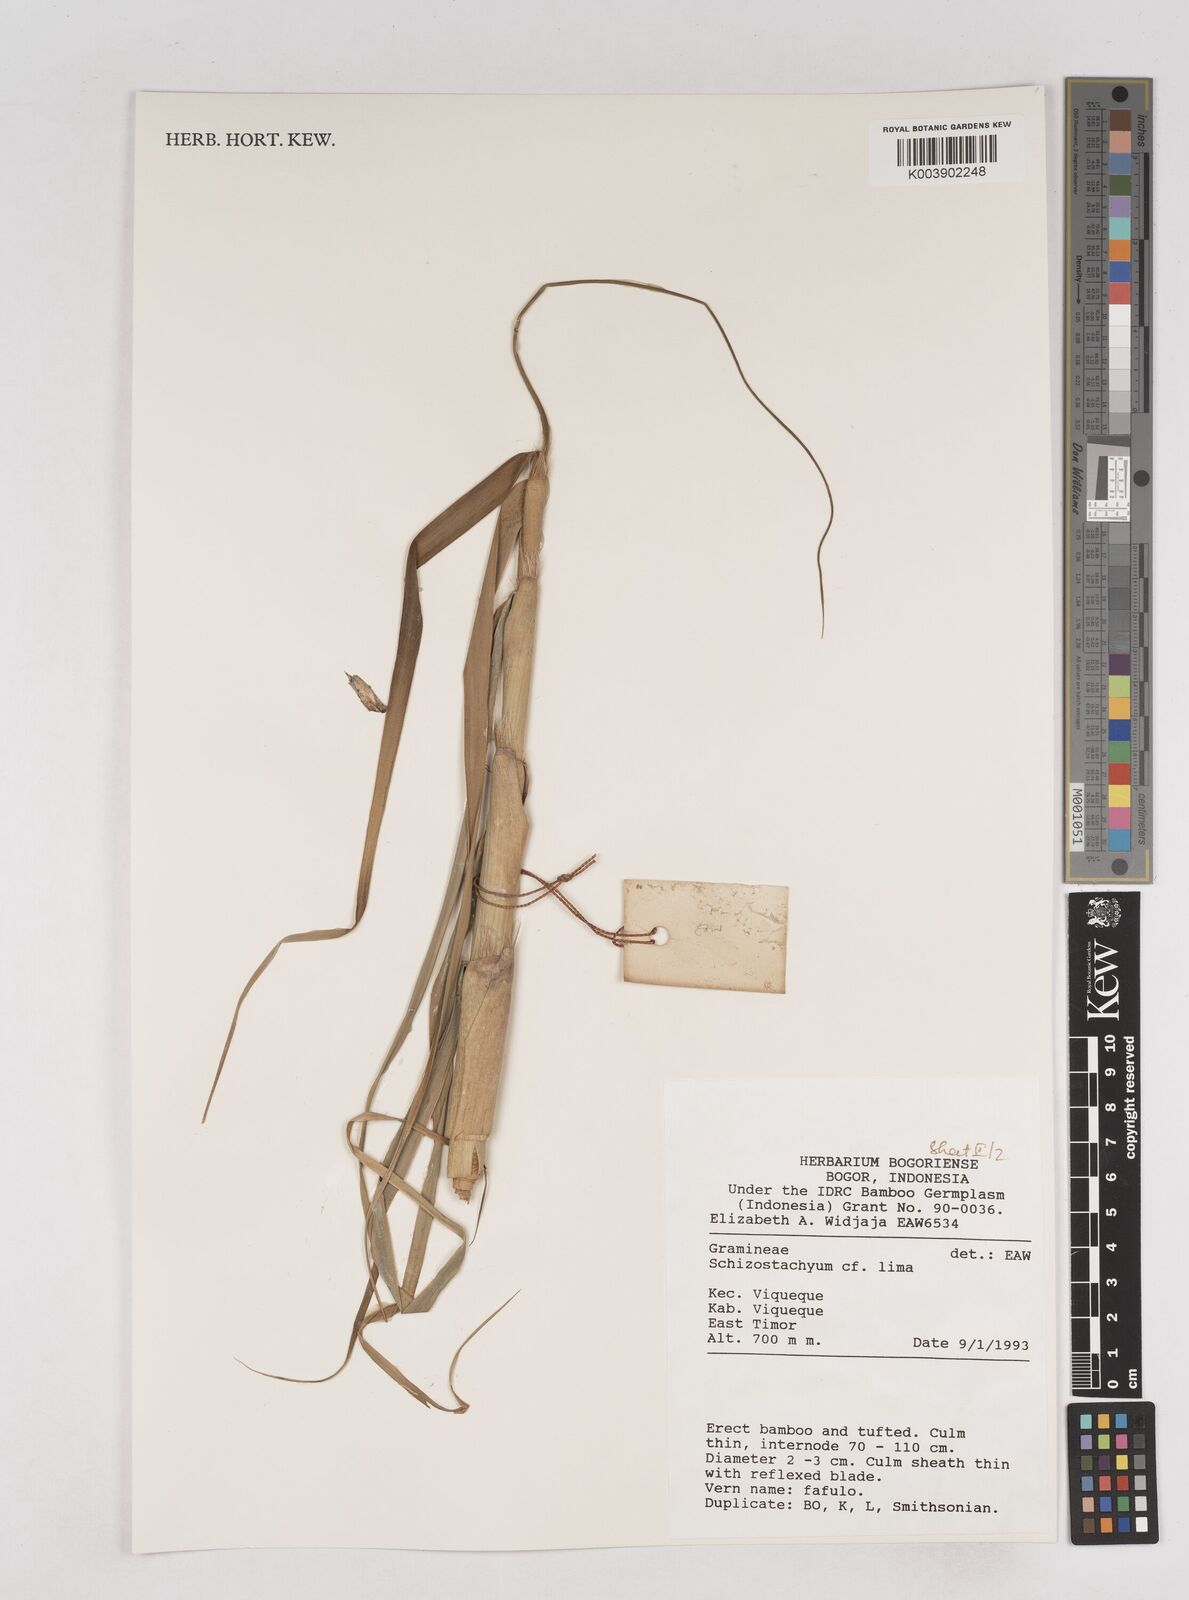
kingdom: Plantae
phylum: Tracheophyta
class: Liliopsida
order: Poales
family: Poaceae
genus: Schizostachyum
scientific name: Schizostachyum lima
